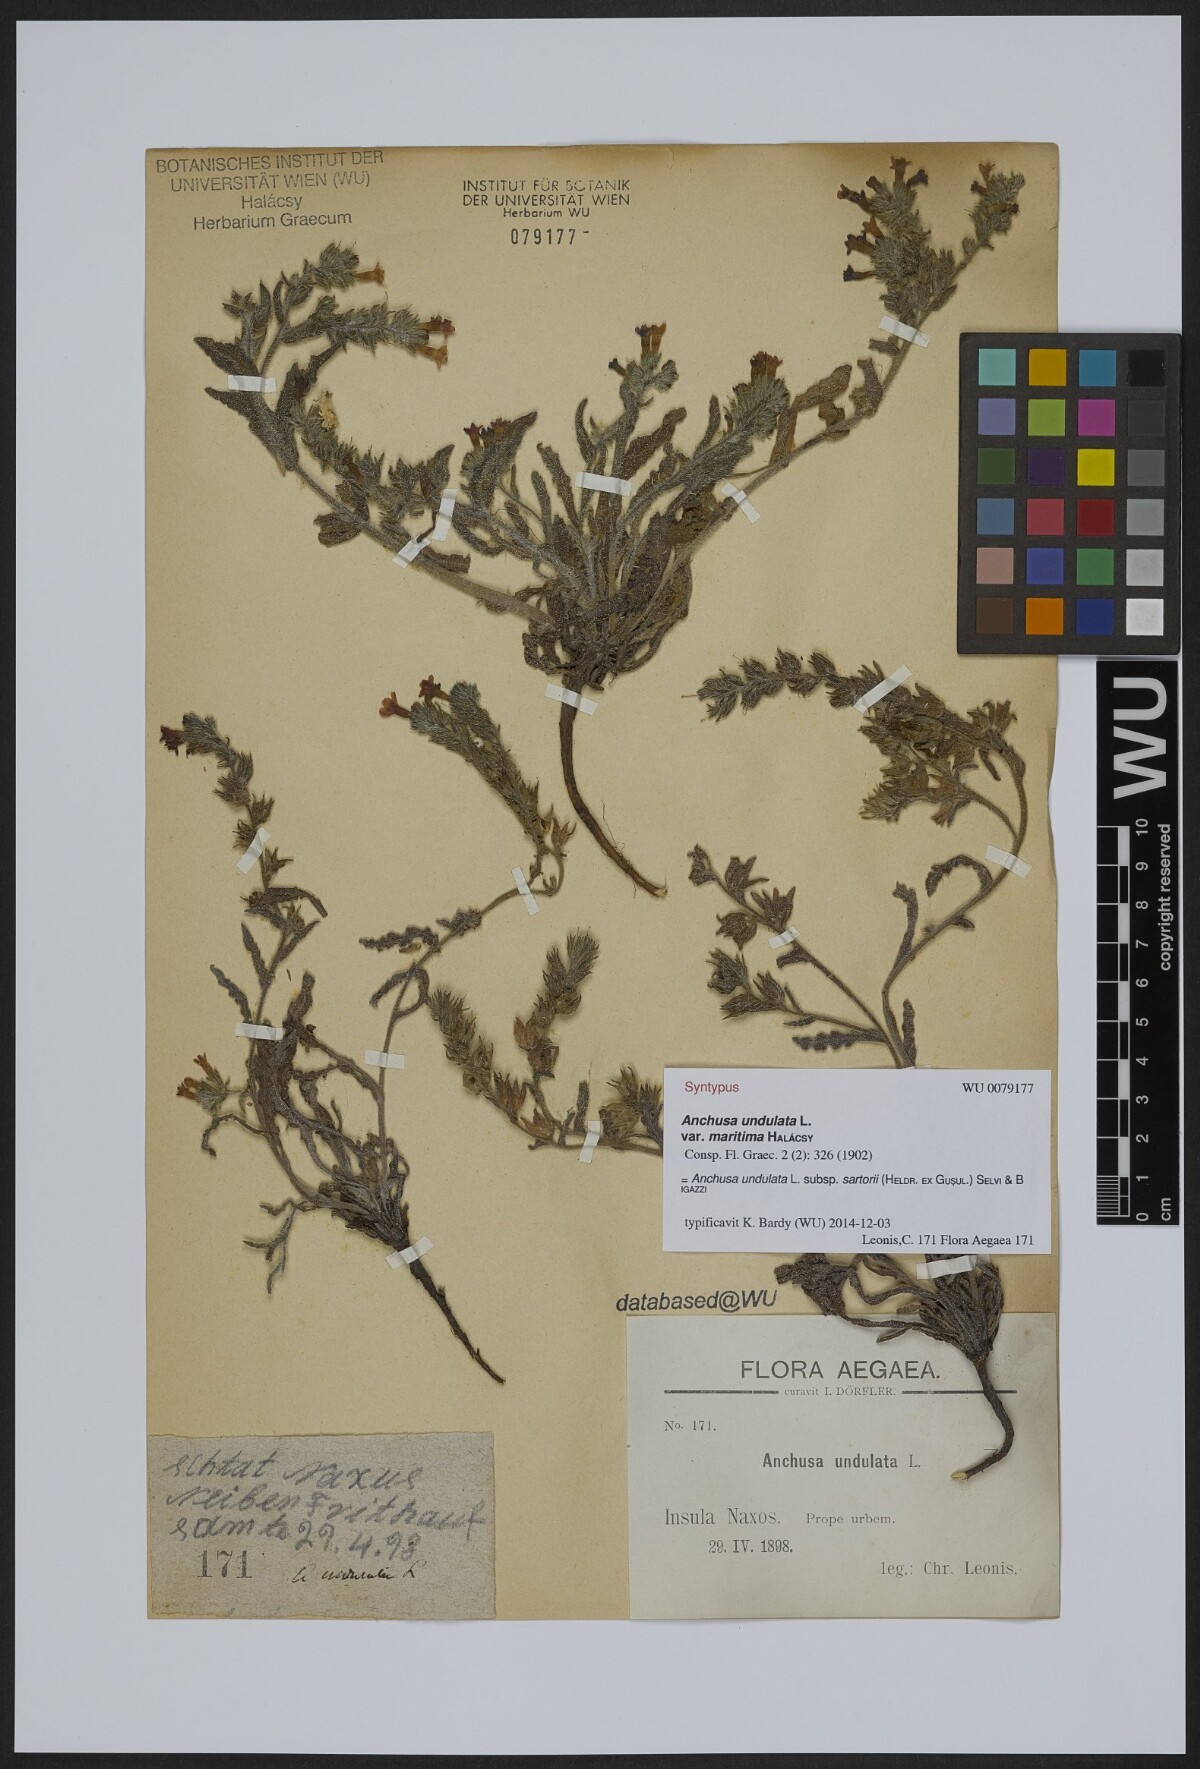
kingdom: Plantae
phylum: Tracheophyta
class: Magnoliopsida
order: Boraginales
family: Boraginaceae
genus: Anchusa
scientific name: Anchusa undulata
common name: Undulate alkanet
